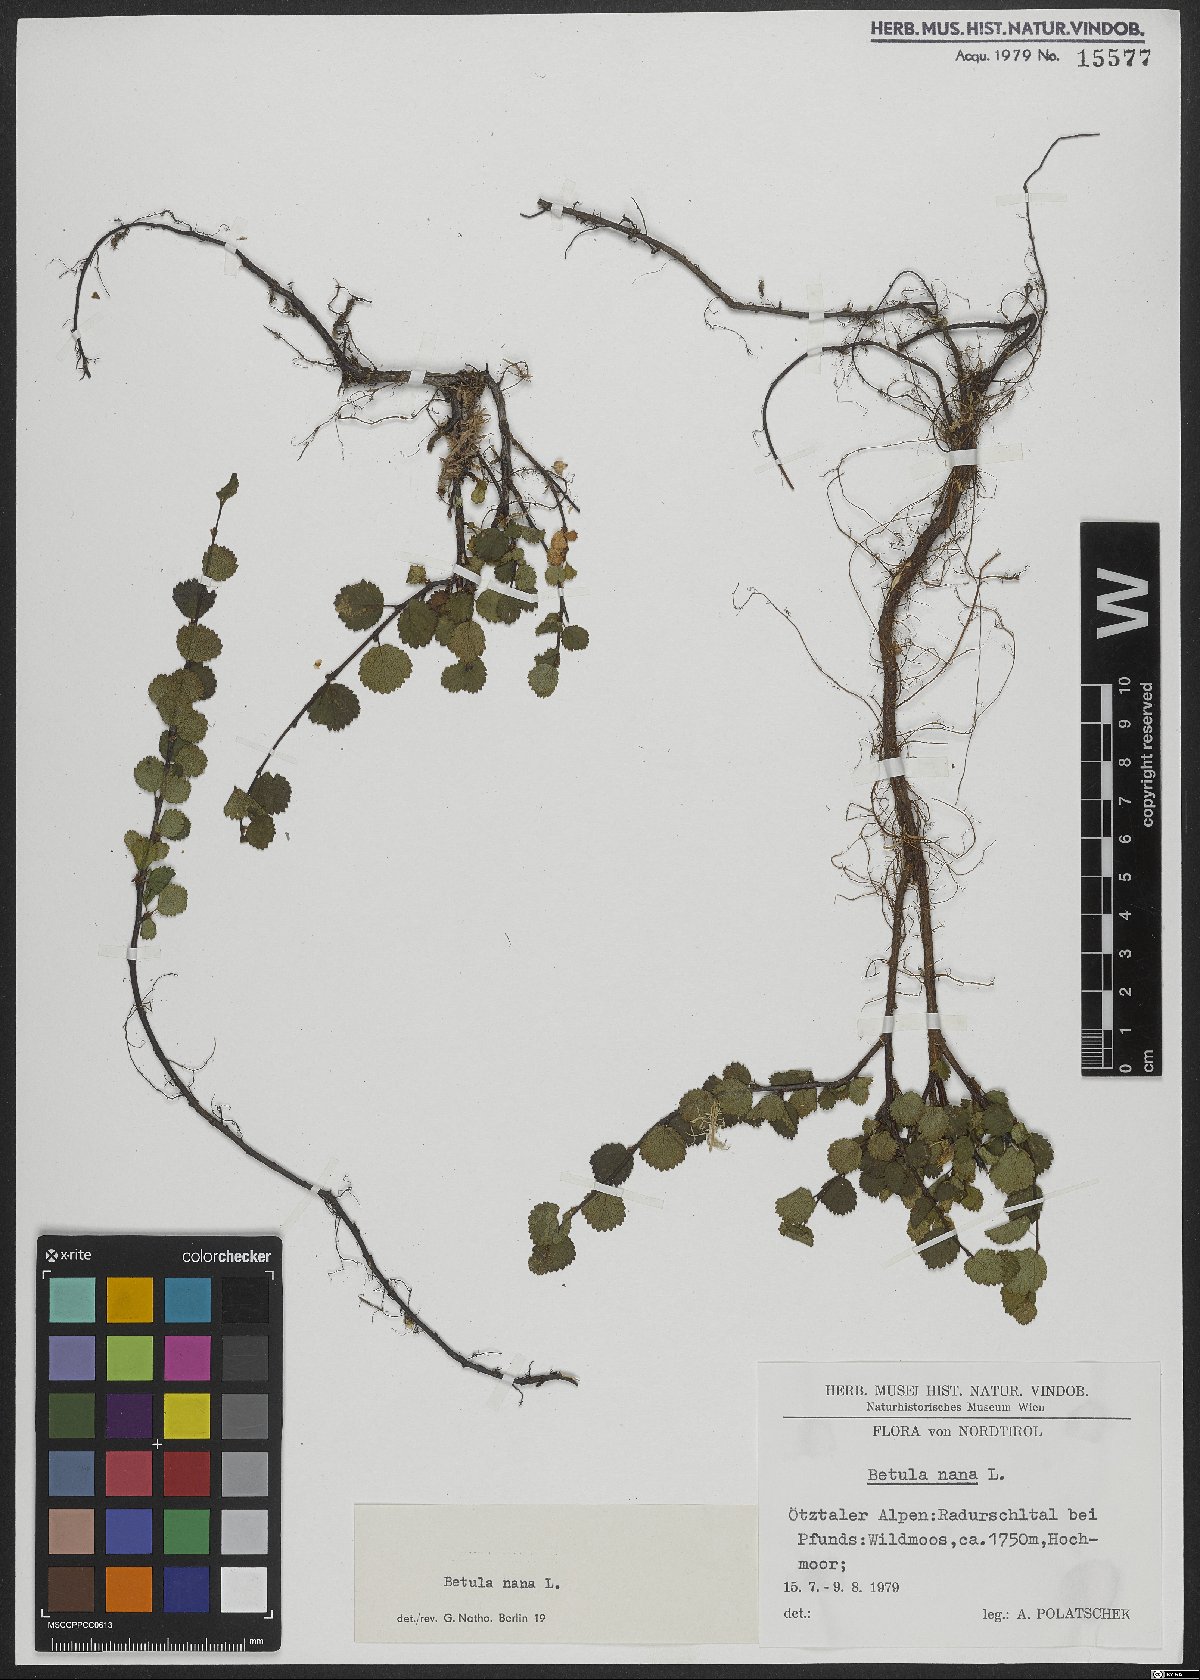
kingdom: Plantae
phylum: Tracheophyta
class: Magnoliopsida
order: Fagales
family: Betulaceae
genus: Betula
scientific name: Betula nana
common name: Arctic dwarf birch
